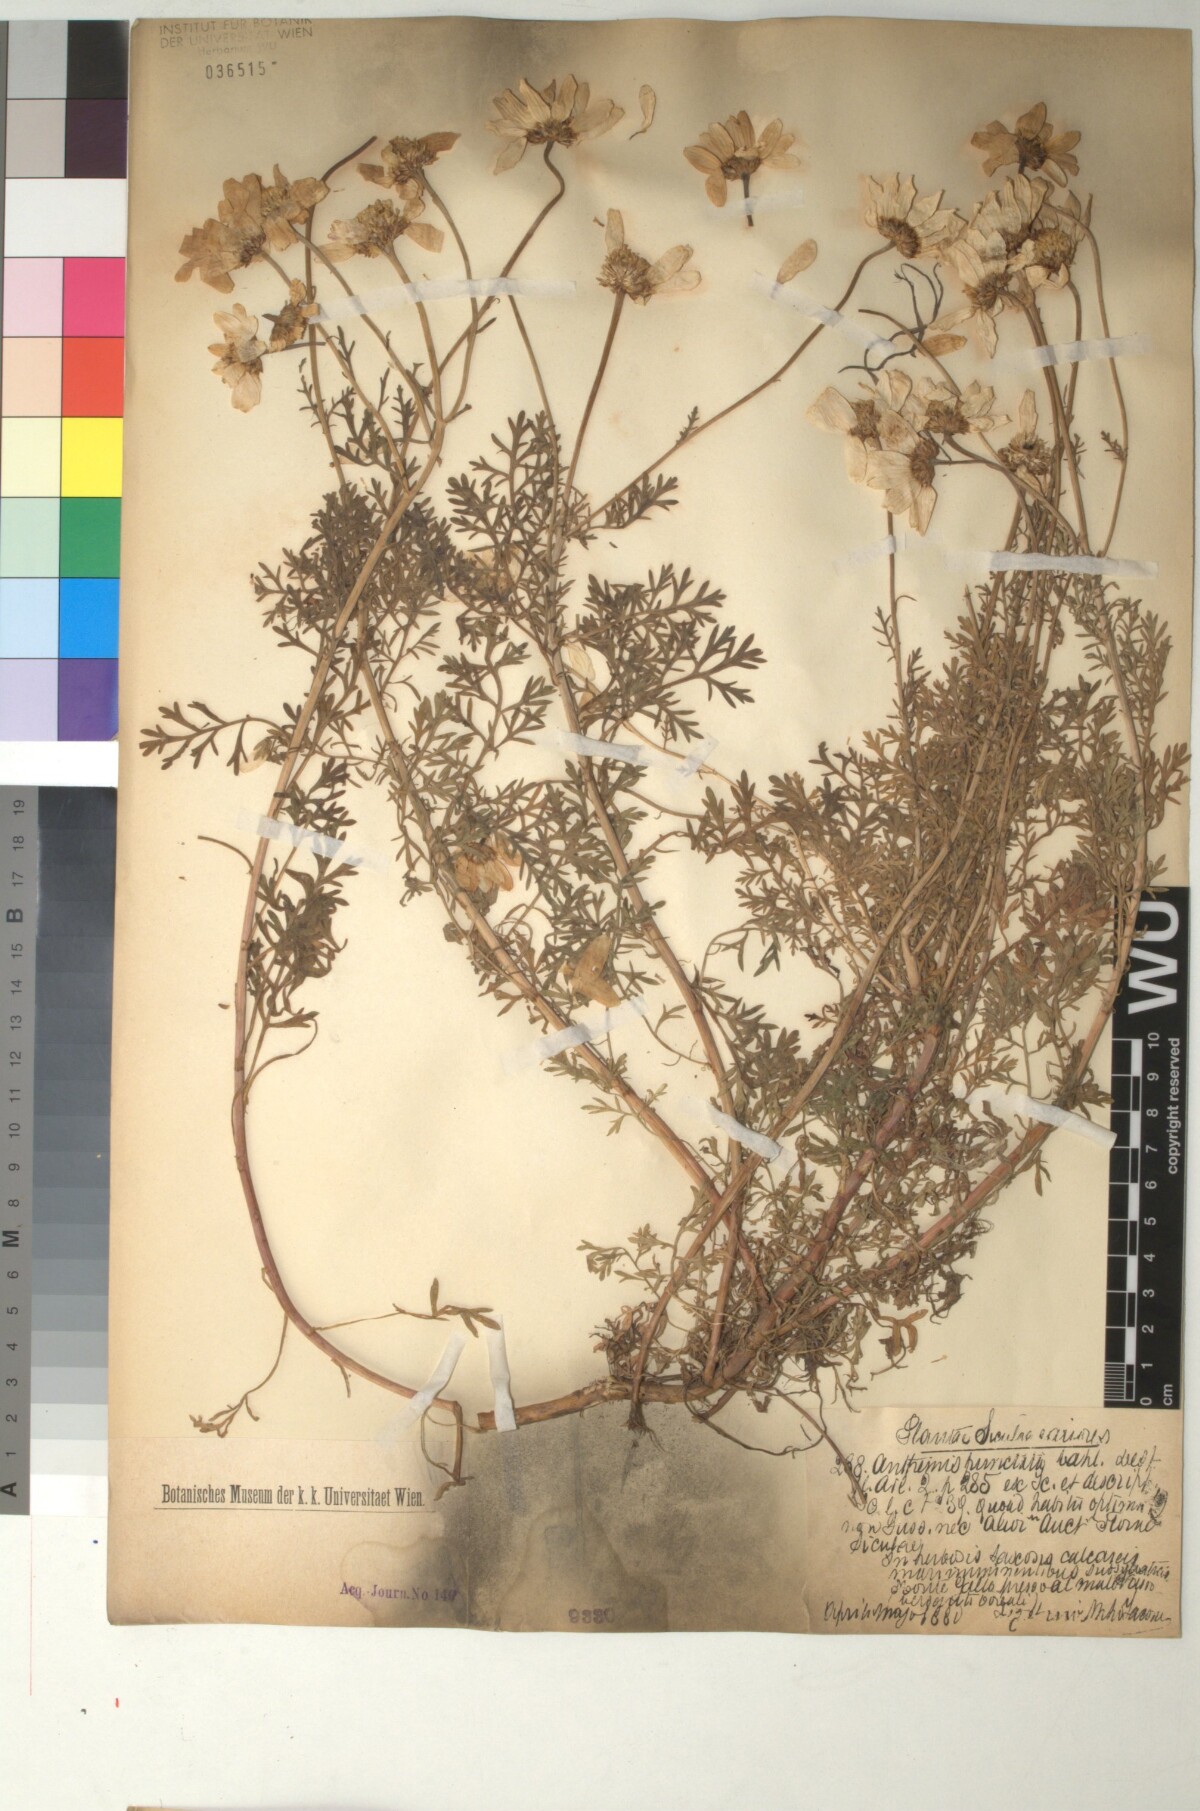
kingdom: Plantae
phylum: Tracheophyta
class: Magnoliopsida
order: Asterales
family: Asteraceae
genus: Anthemis
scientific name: Anthemis punctata
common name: Sicilian chamomile
